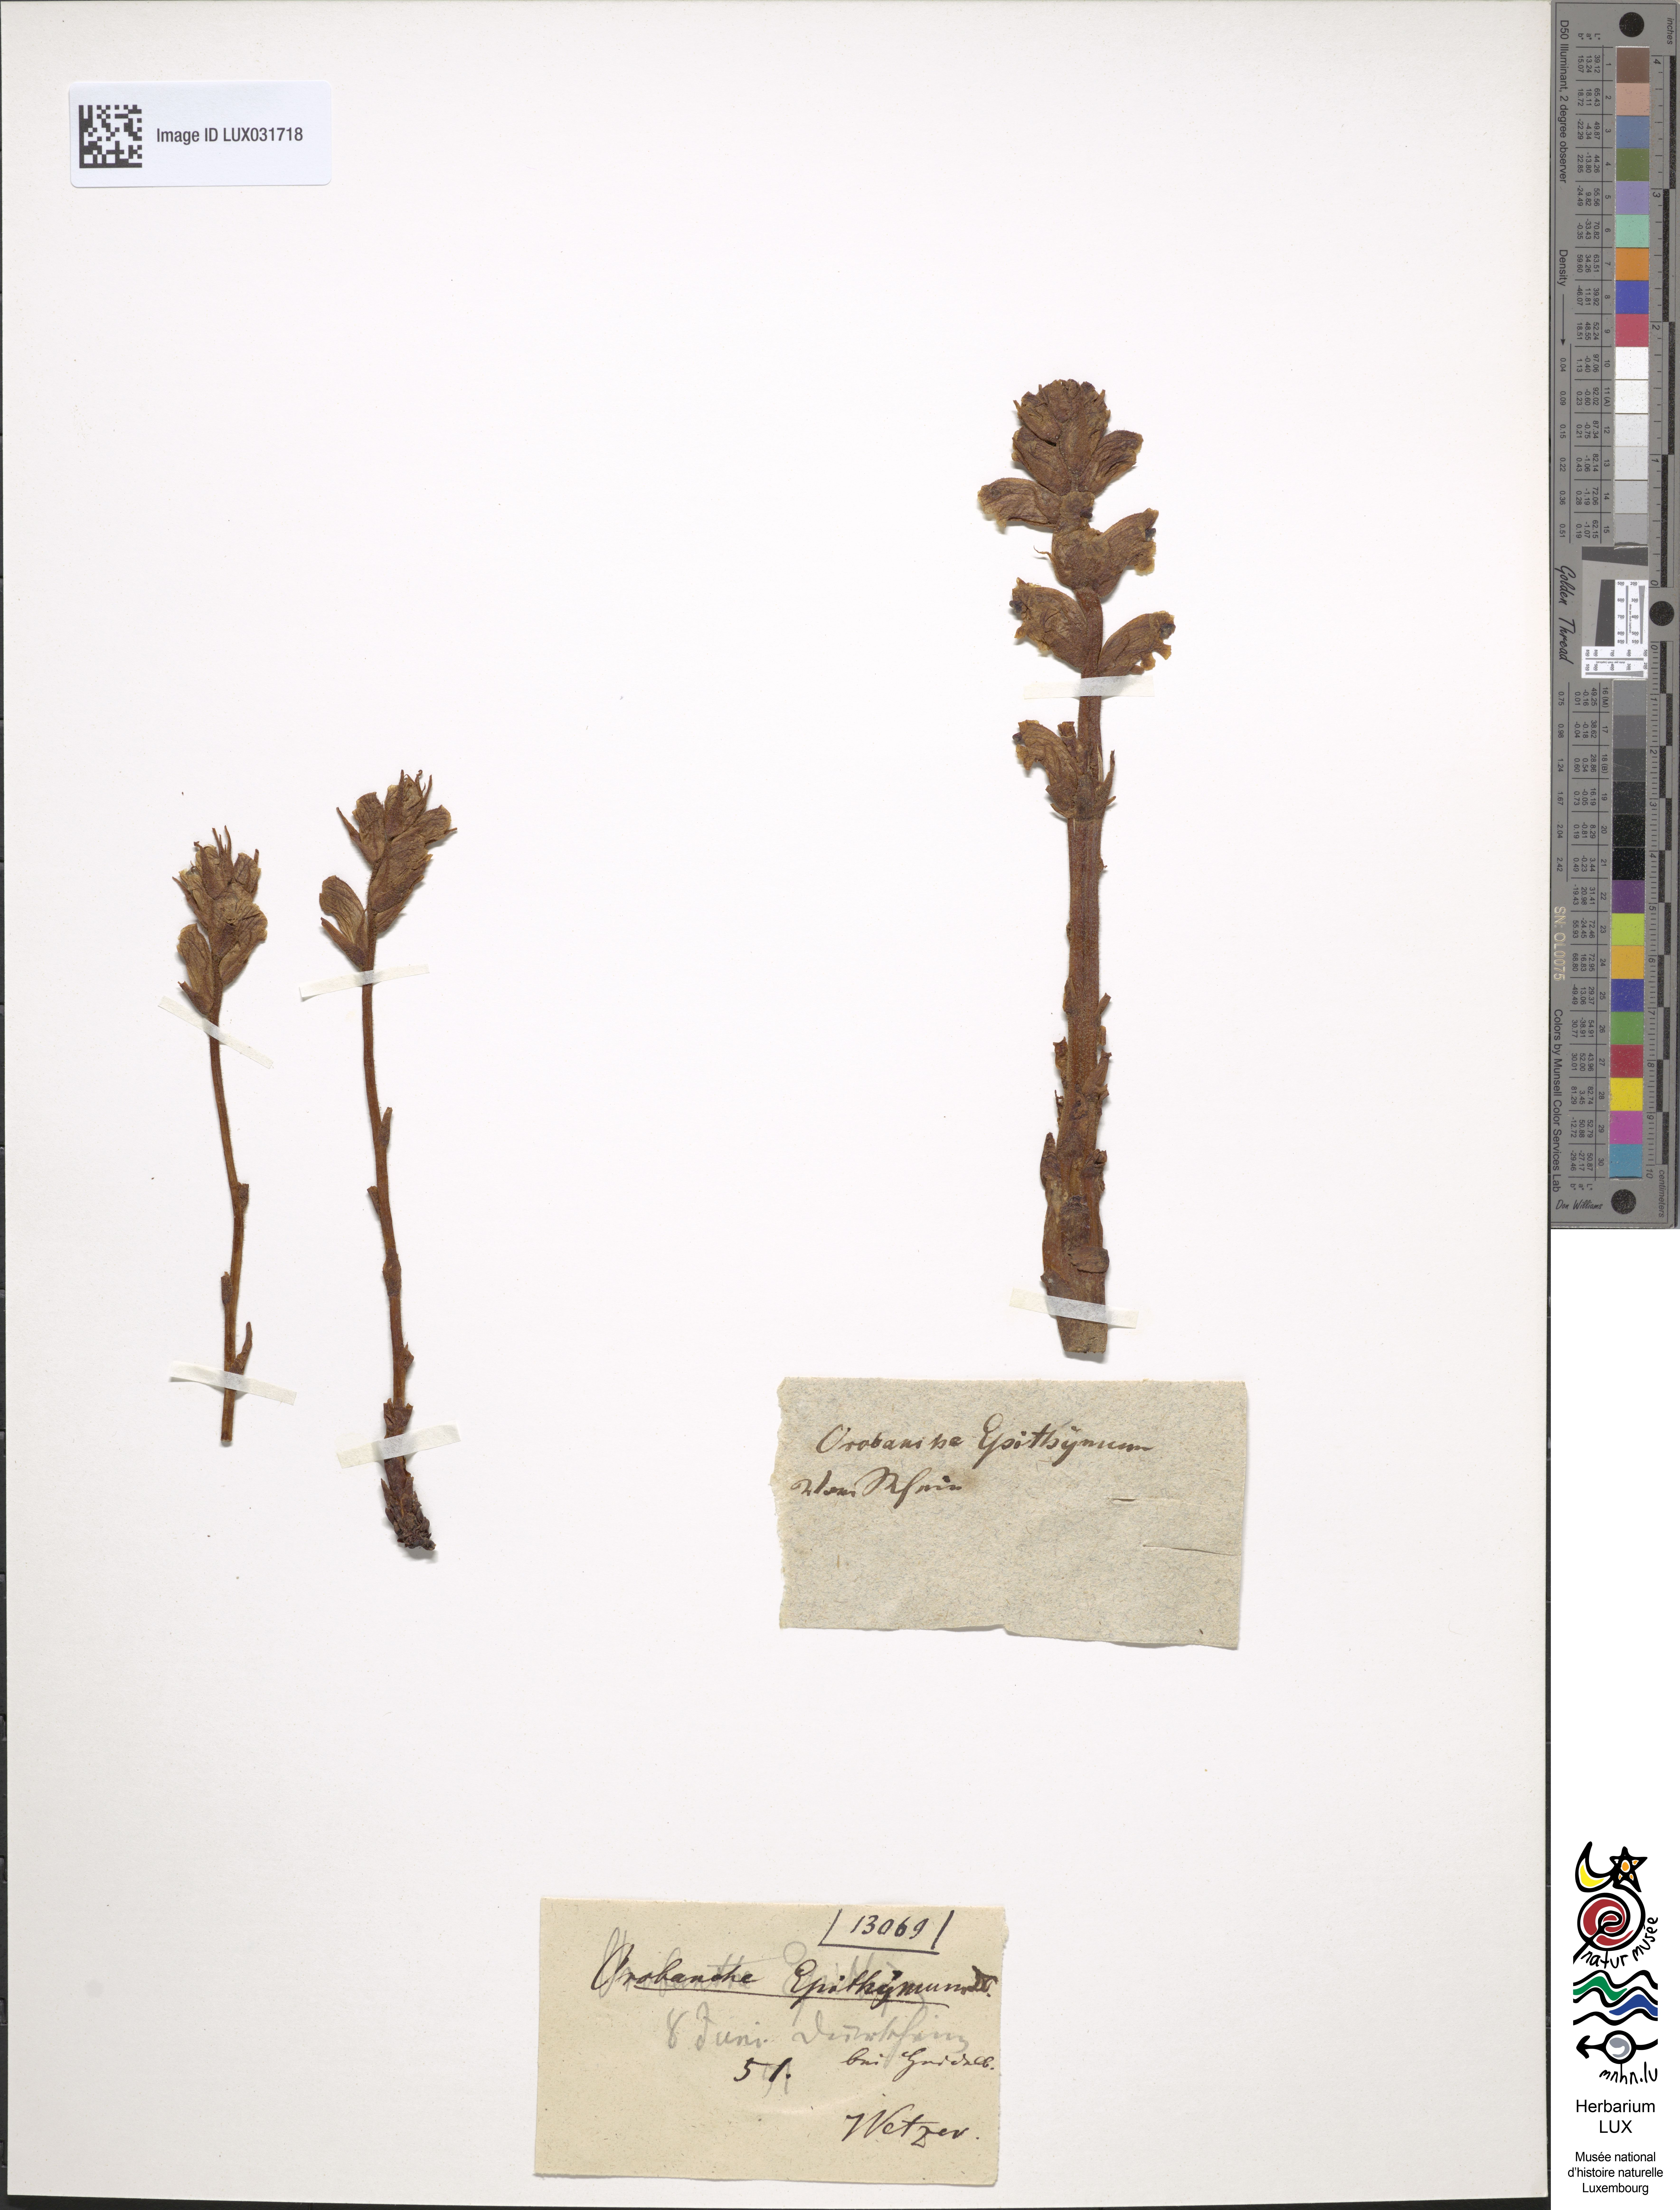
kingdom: Plantae
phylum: Tracheophyta
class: Magnoliopsida
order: Lamiales
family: Orobanchaceae
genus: Orobanche
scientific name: Orobanche alba
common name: Thyme broomrape
